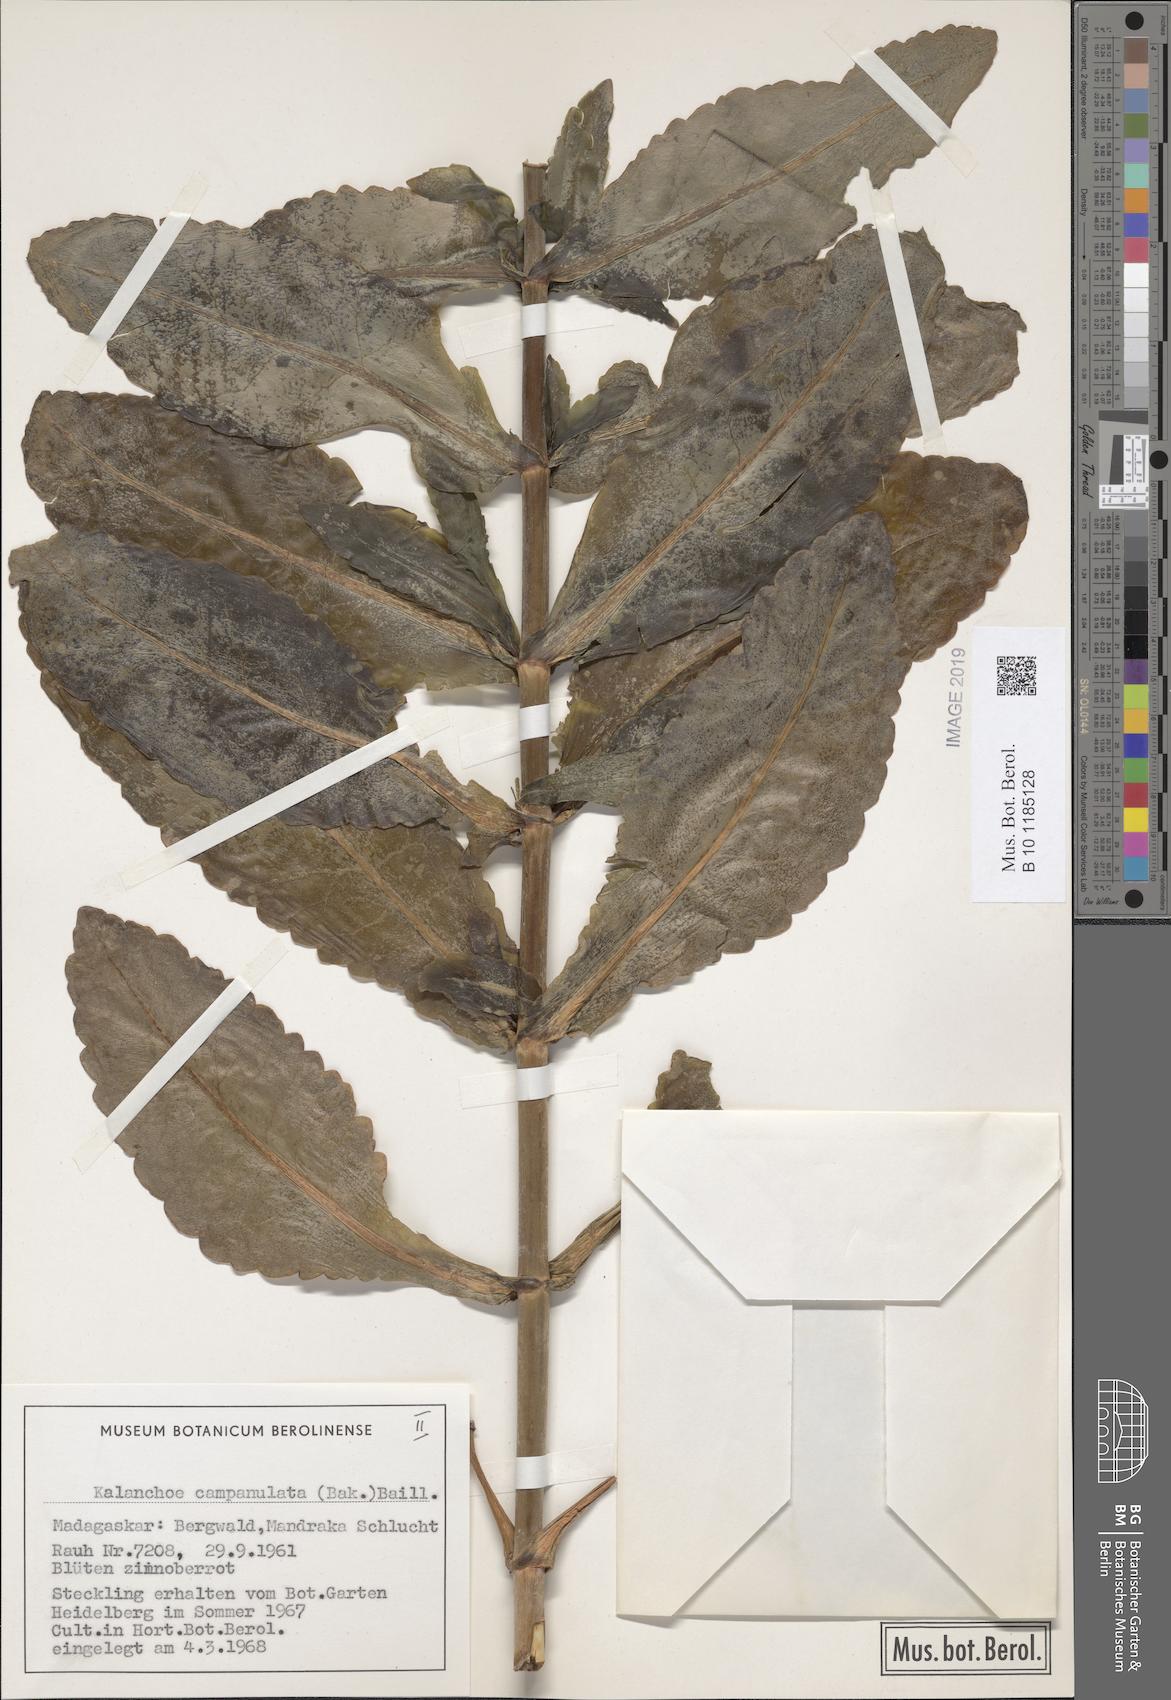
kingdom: Plantae
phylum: Tracheophyta
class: Magnoliopsida
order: Saxifragales
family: Crassulaceae
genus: Kalanchoe
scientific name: Kalanchoe campanulata
